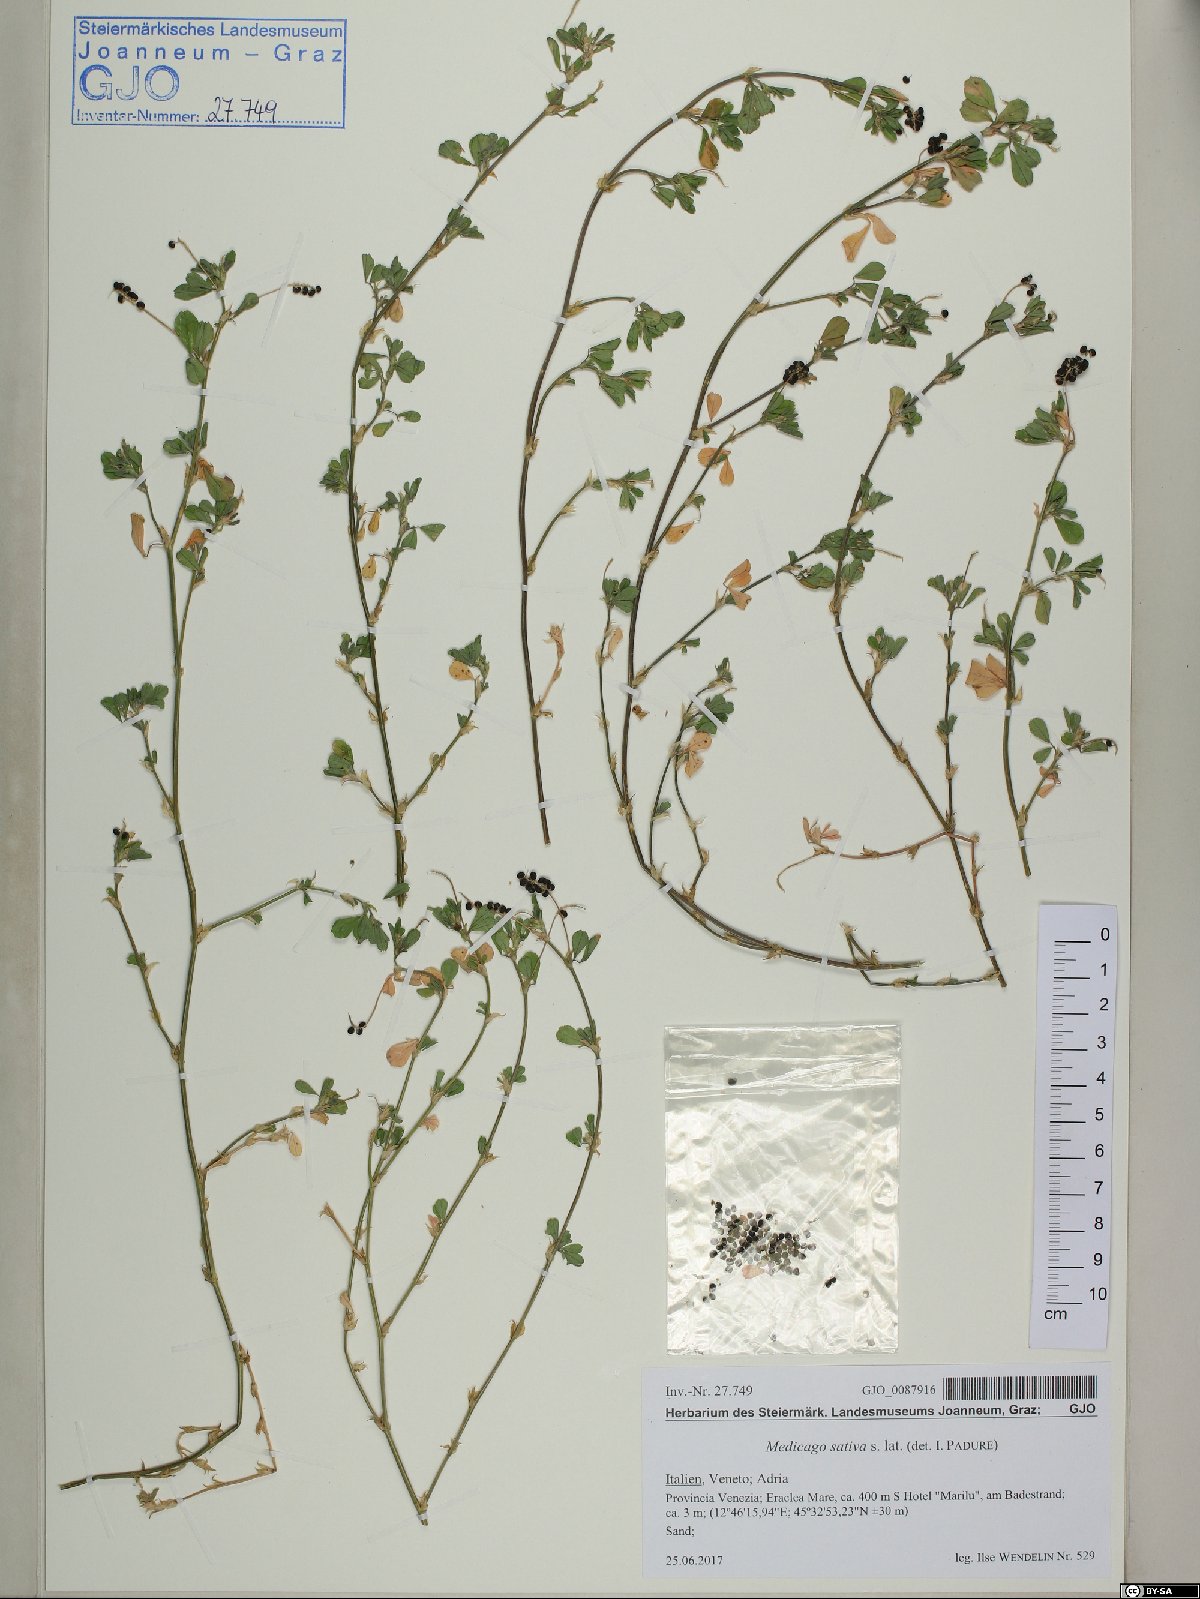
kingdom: Plantae
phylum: Tracheophyta
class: Magnoliopsida
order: Fabales
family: Fabaceae
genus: Medicago
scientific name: Medicago lupulina
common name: Black medick
